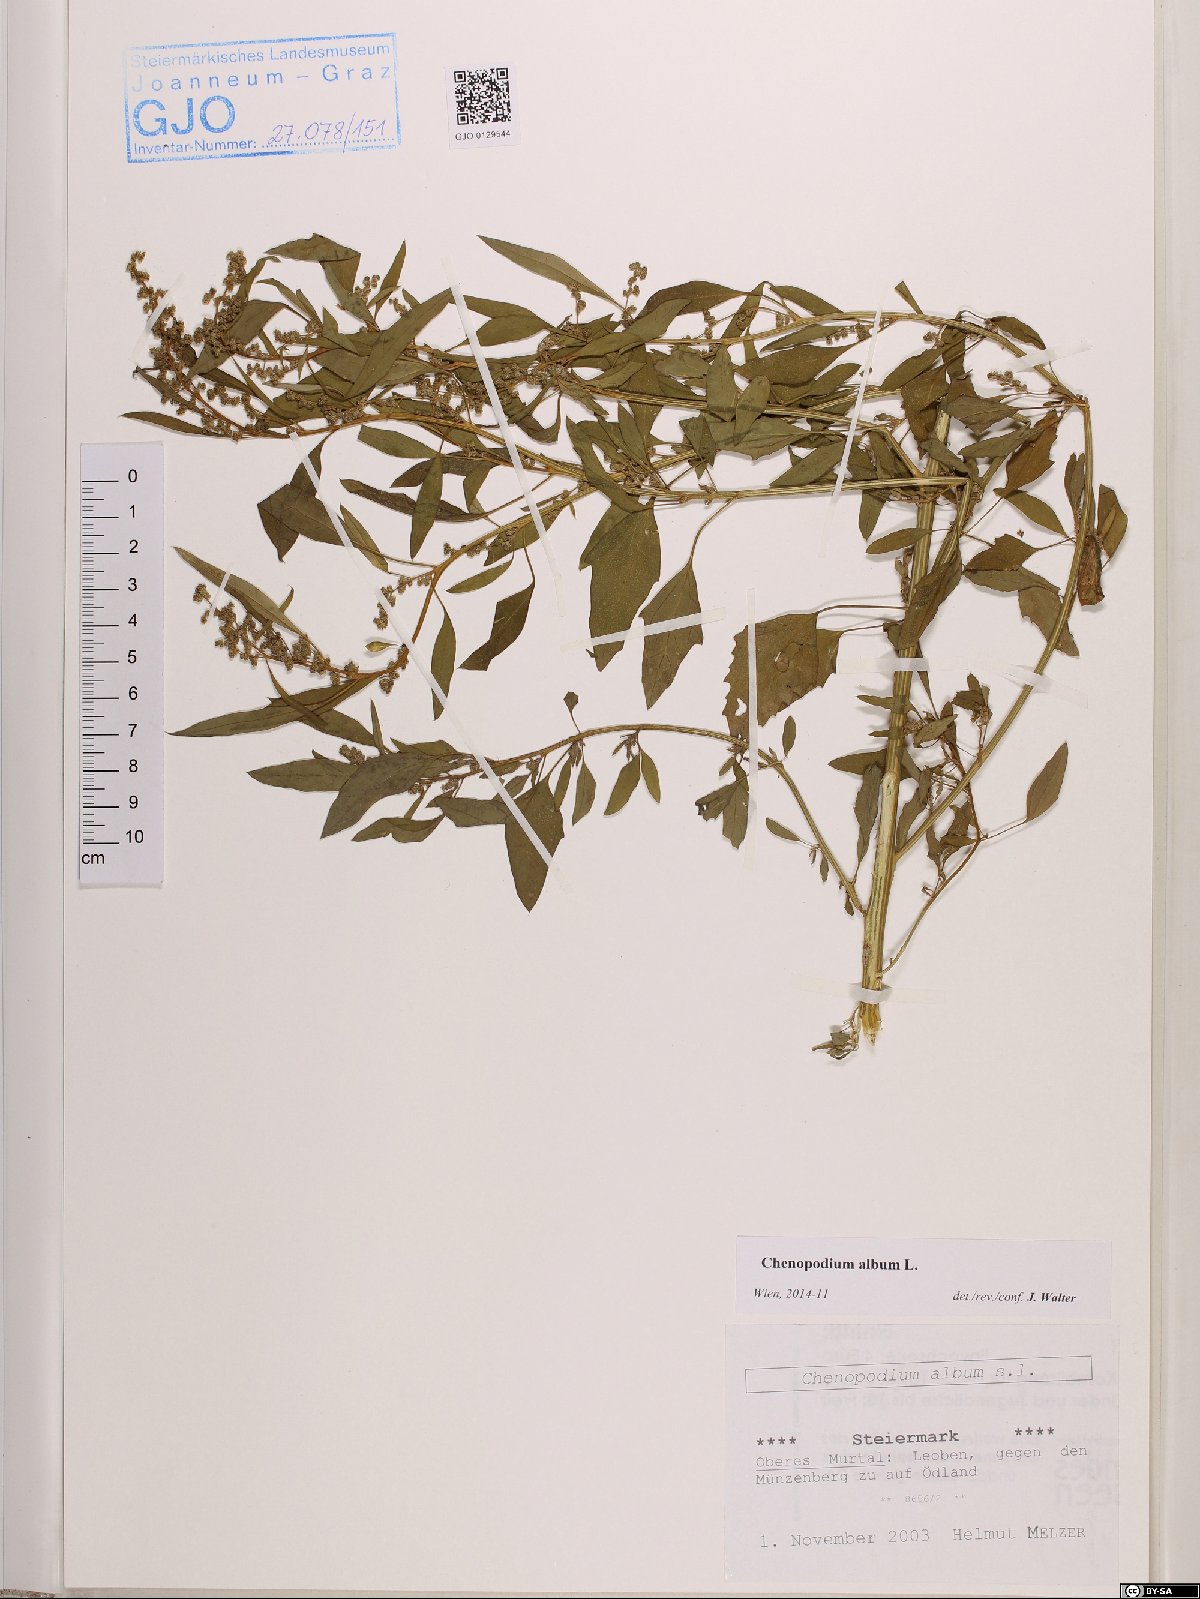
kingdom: Plantae
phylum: Tracheophyta
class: Magnoliopsida
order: Caryophyllales
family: Amaranthaceae
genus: Chenopodium
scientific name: Chenopodium album
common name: Fat-hen
